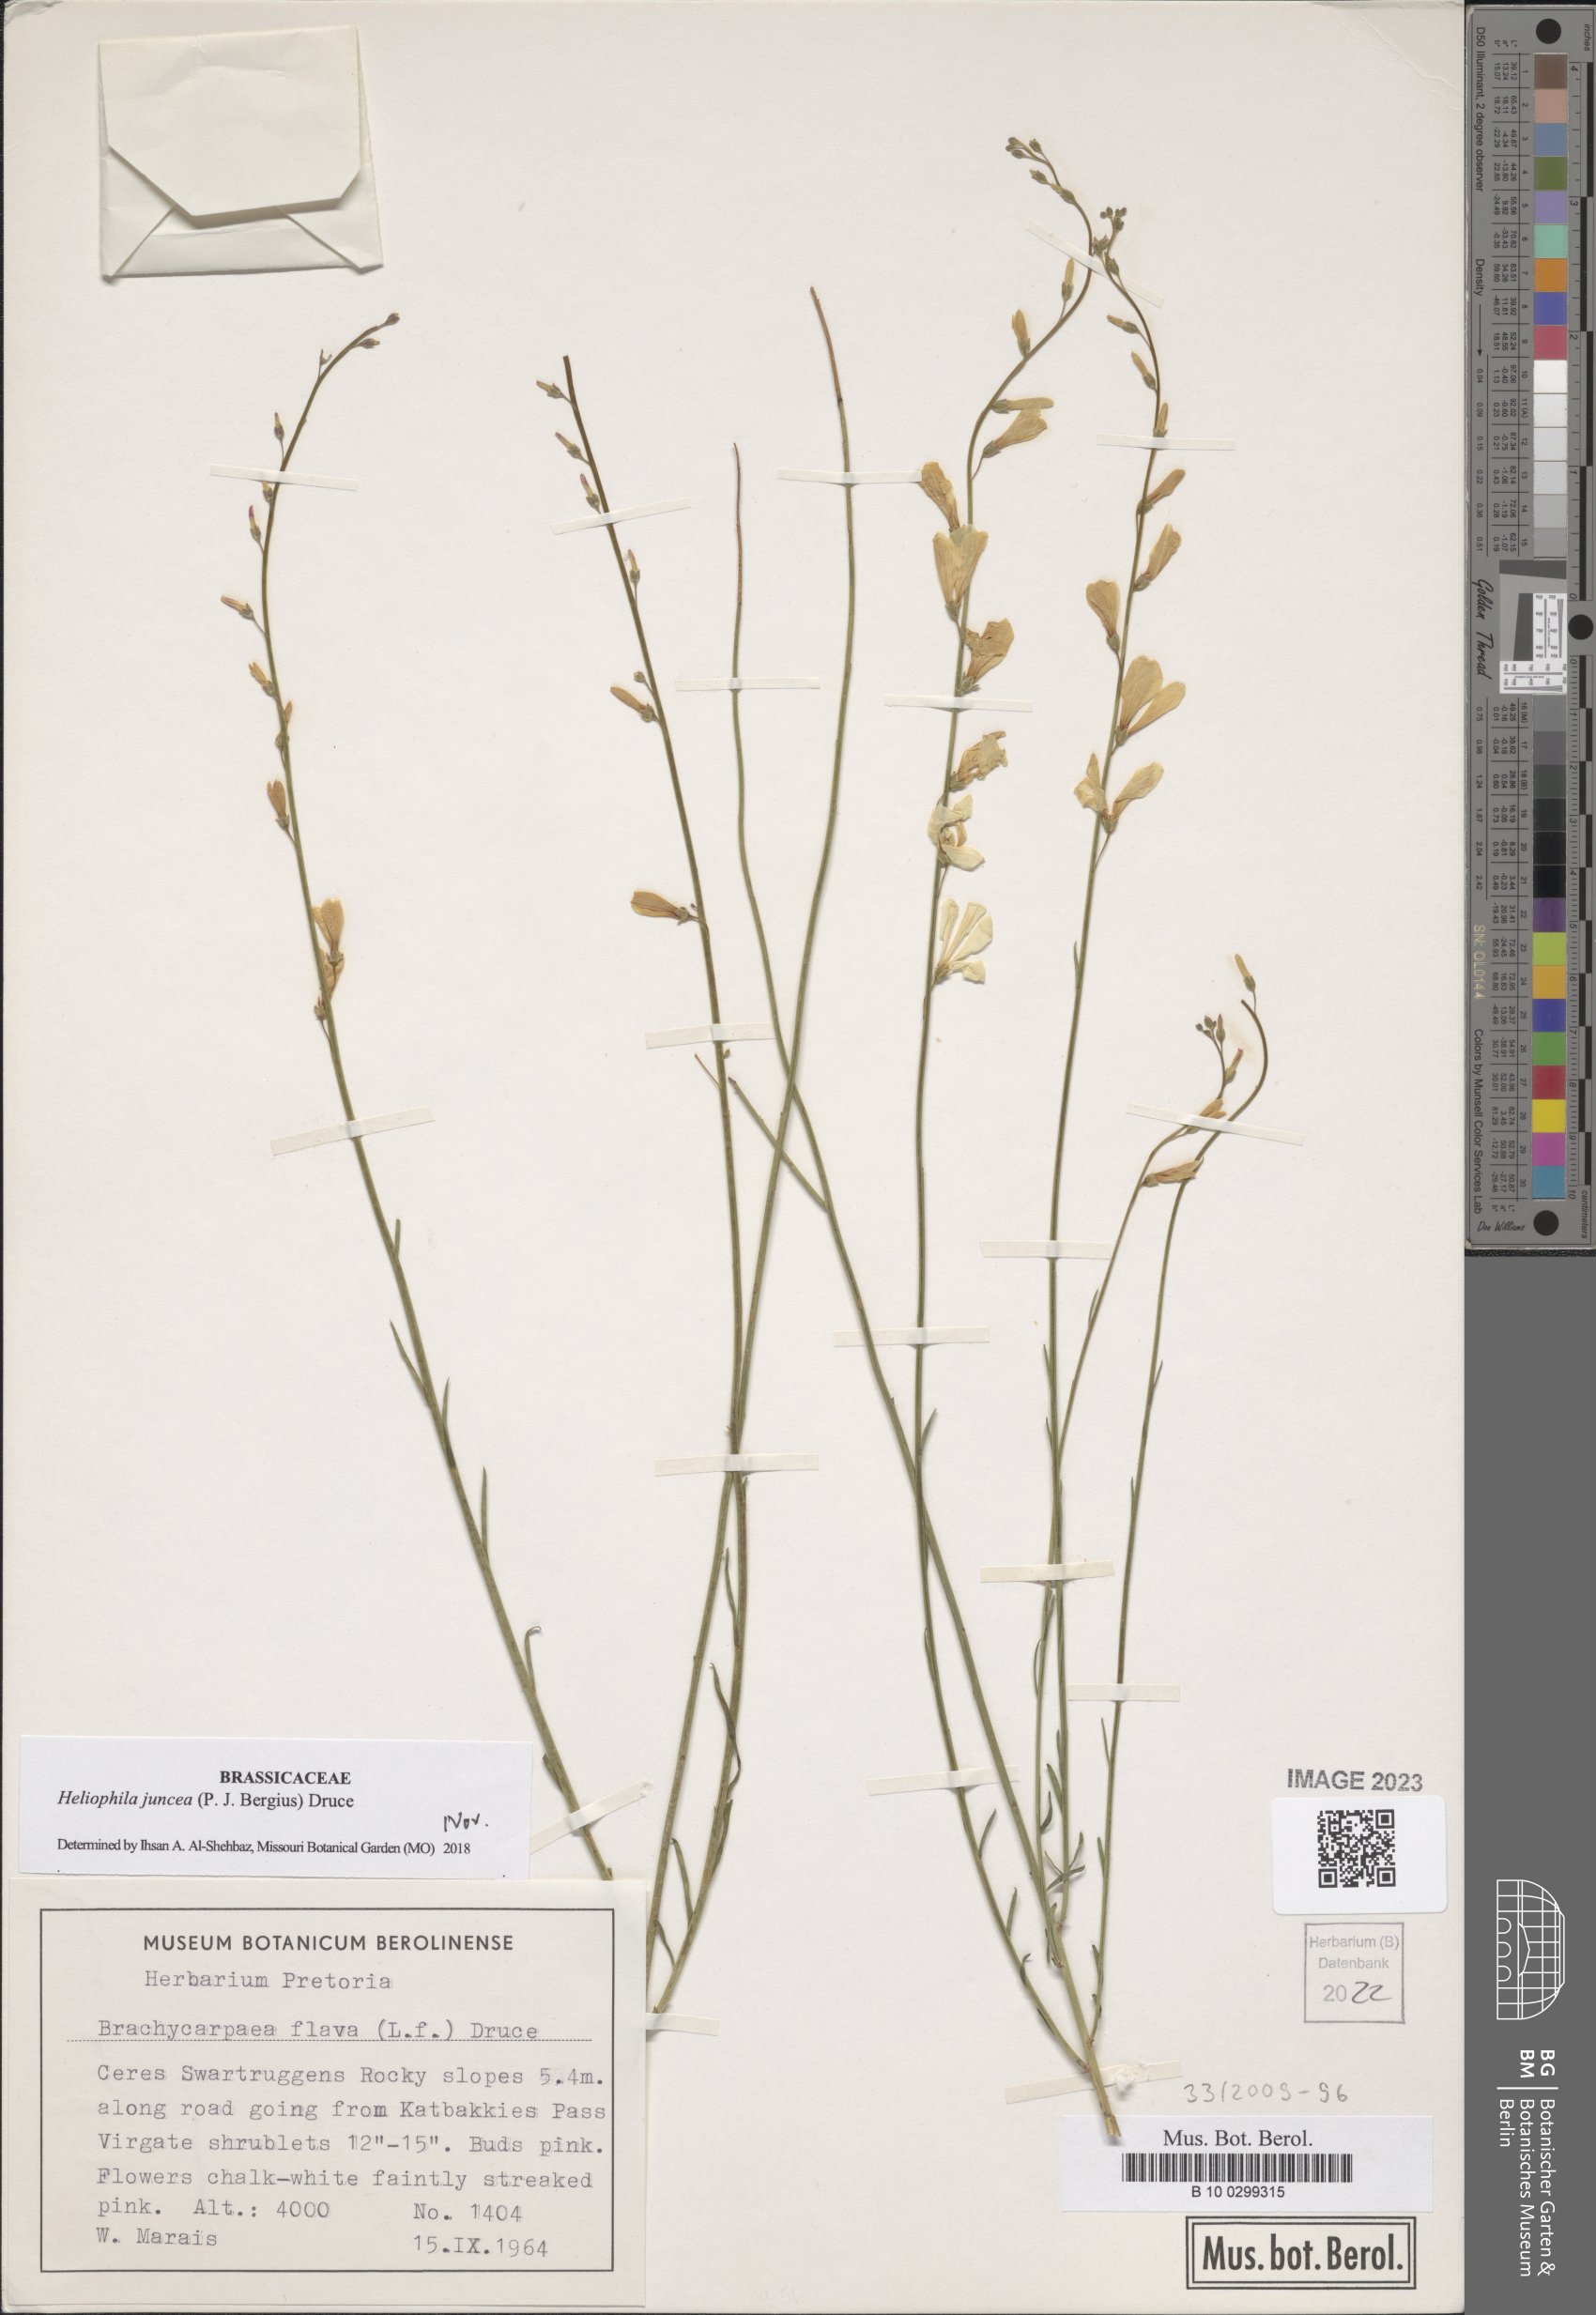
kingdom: Plantae
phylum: Tracheophyta
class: Magnoliopsida
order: Brassicales
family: Brassicaceae
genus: Heliophila
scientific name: Heliophila juncea
